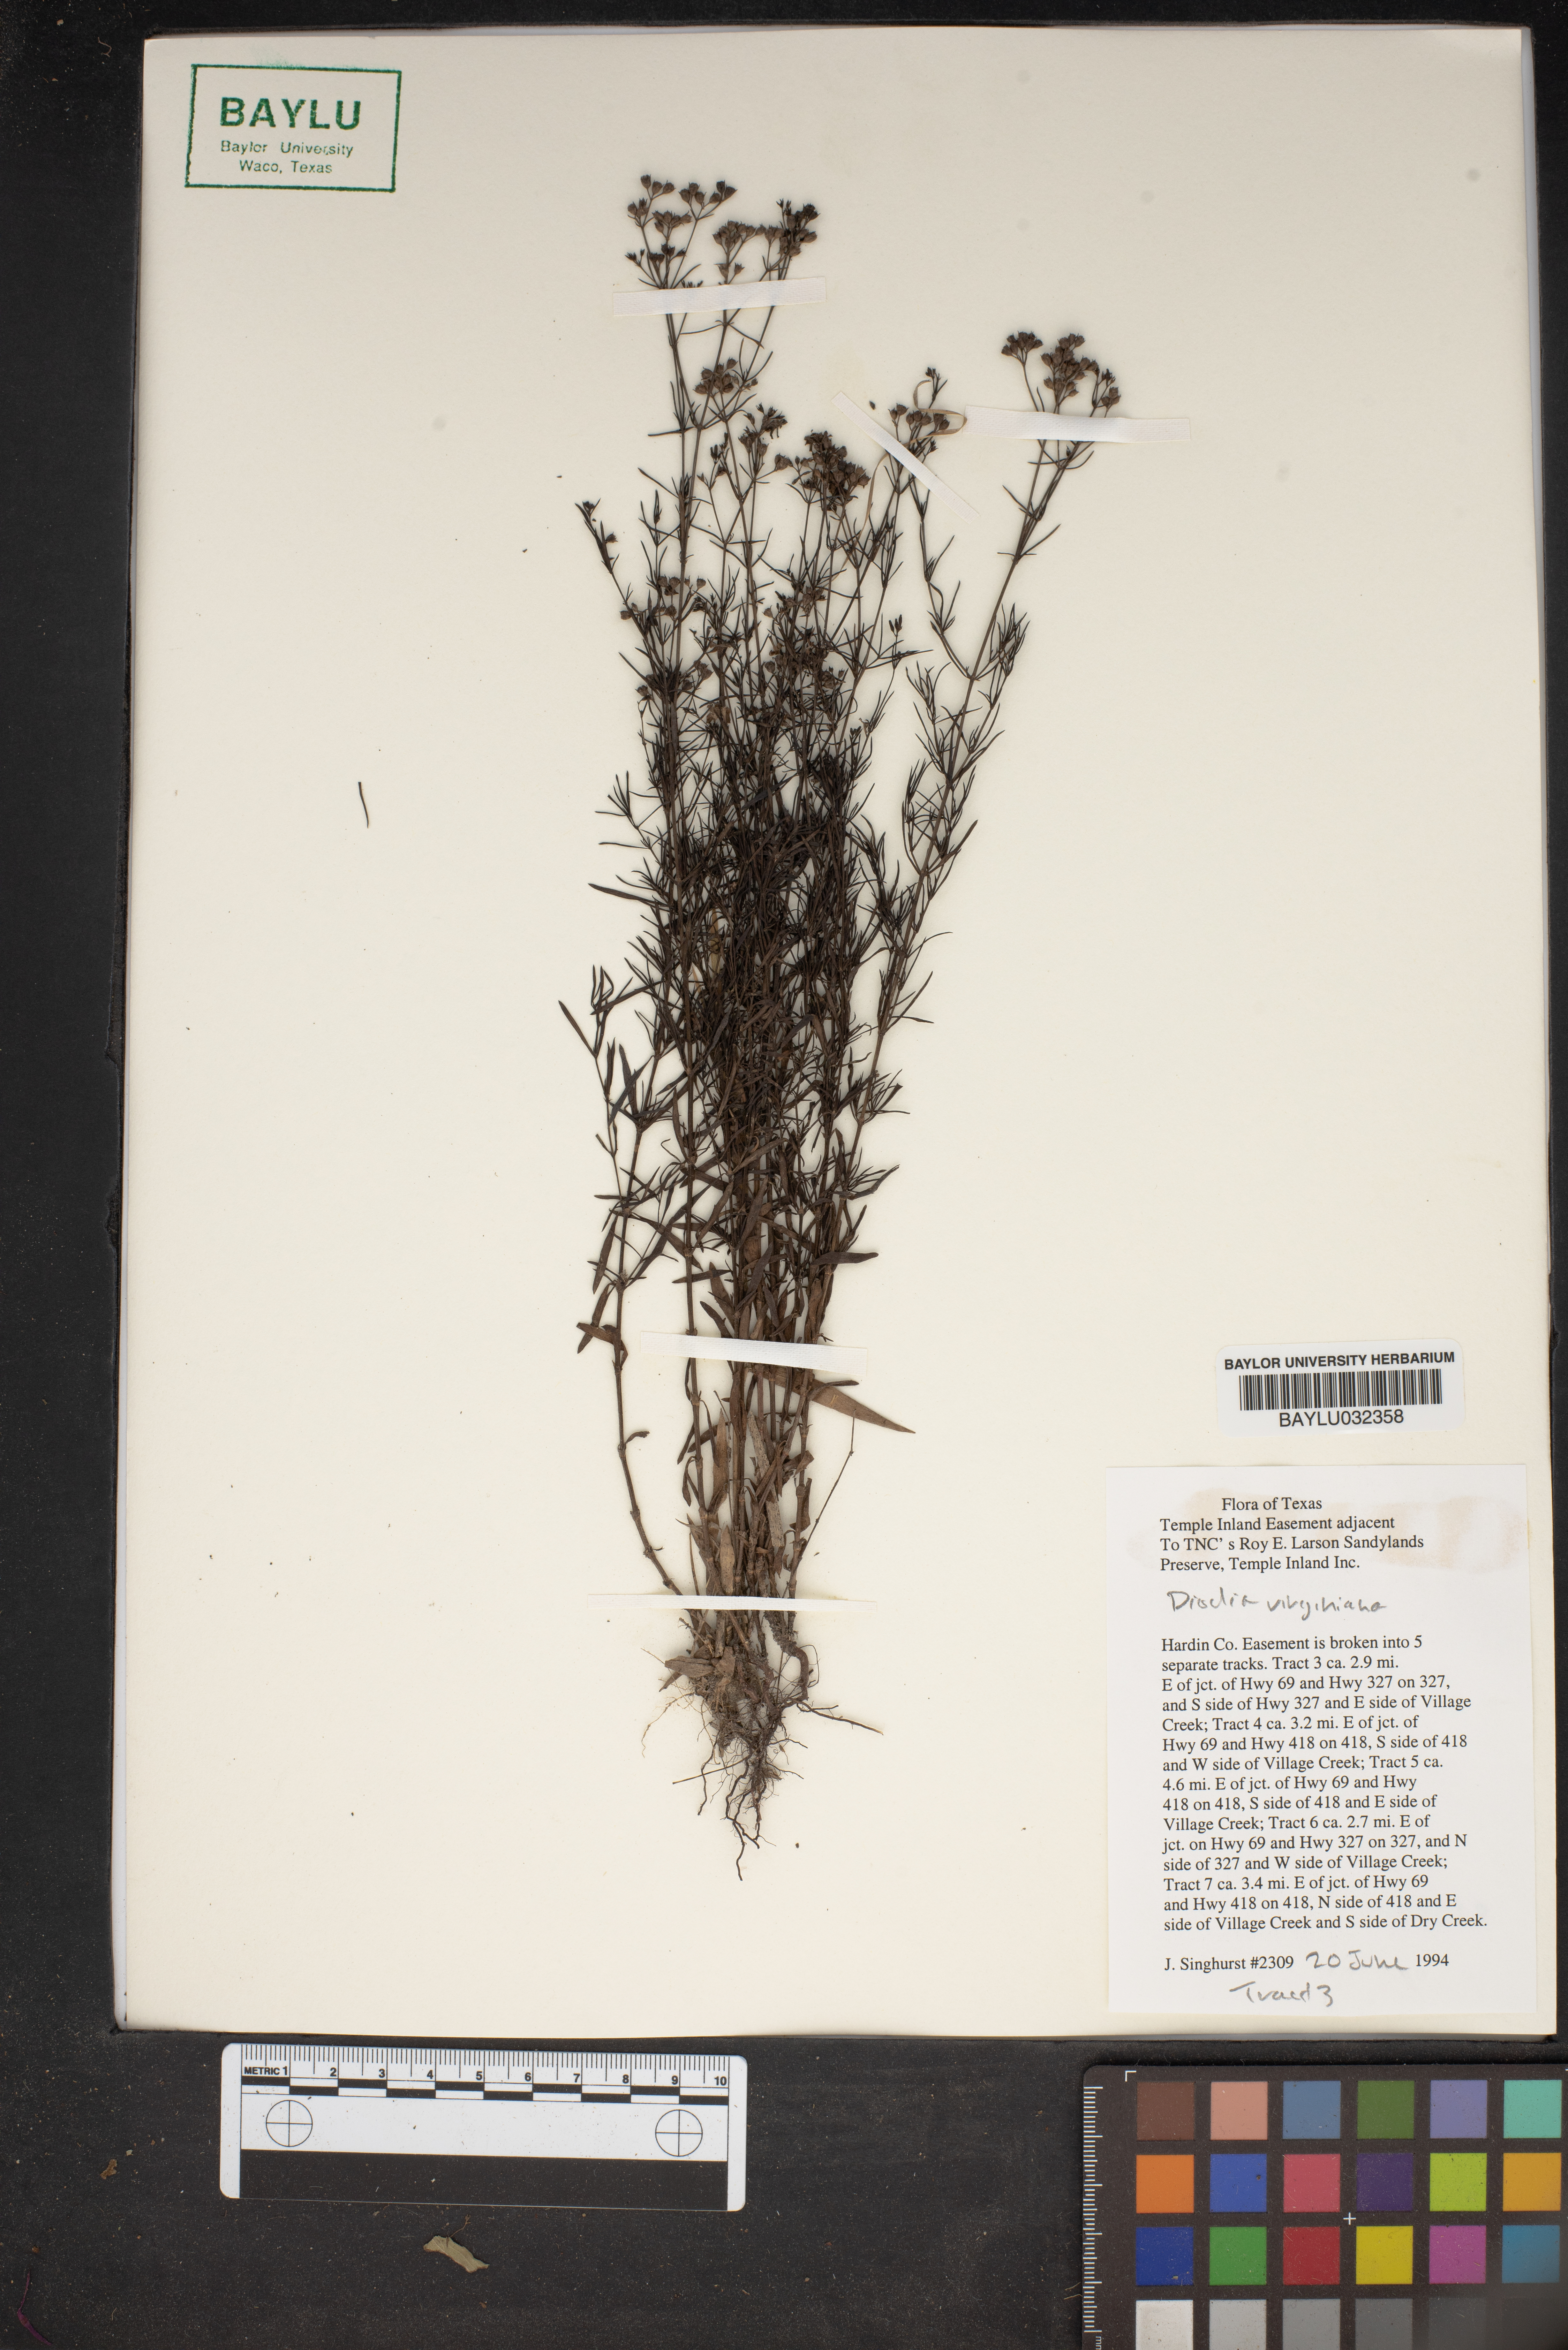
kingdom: Plantae
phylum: Tracheophyta
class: Magnoliopsida
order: Gentianales
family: Rubiaceae
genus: Diodia
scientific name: Diodia virginiana
